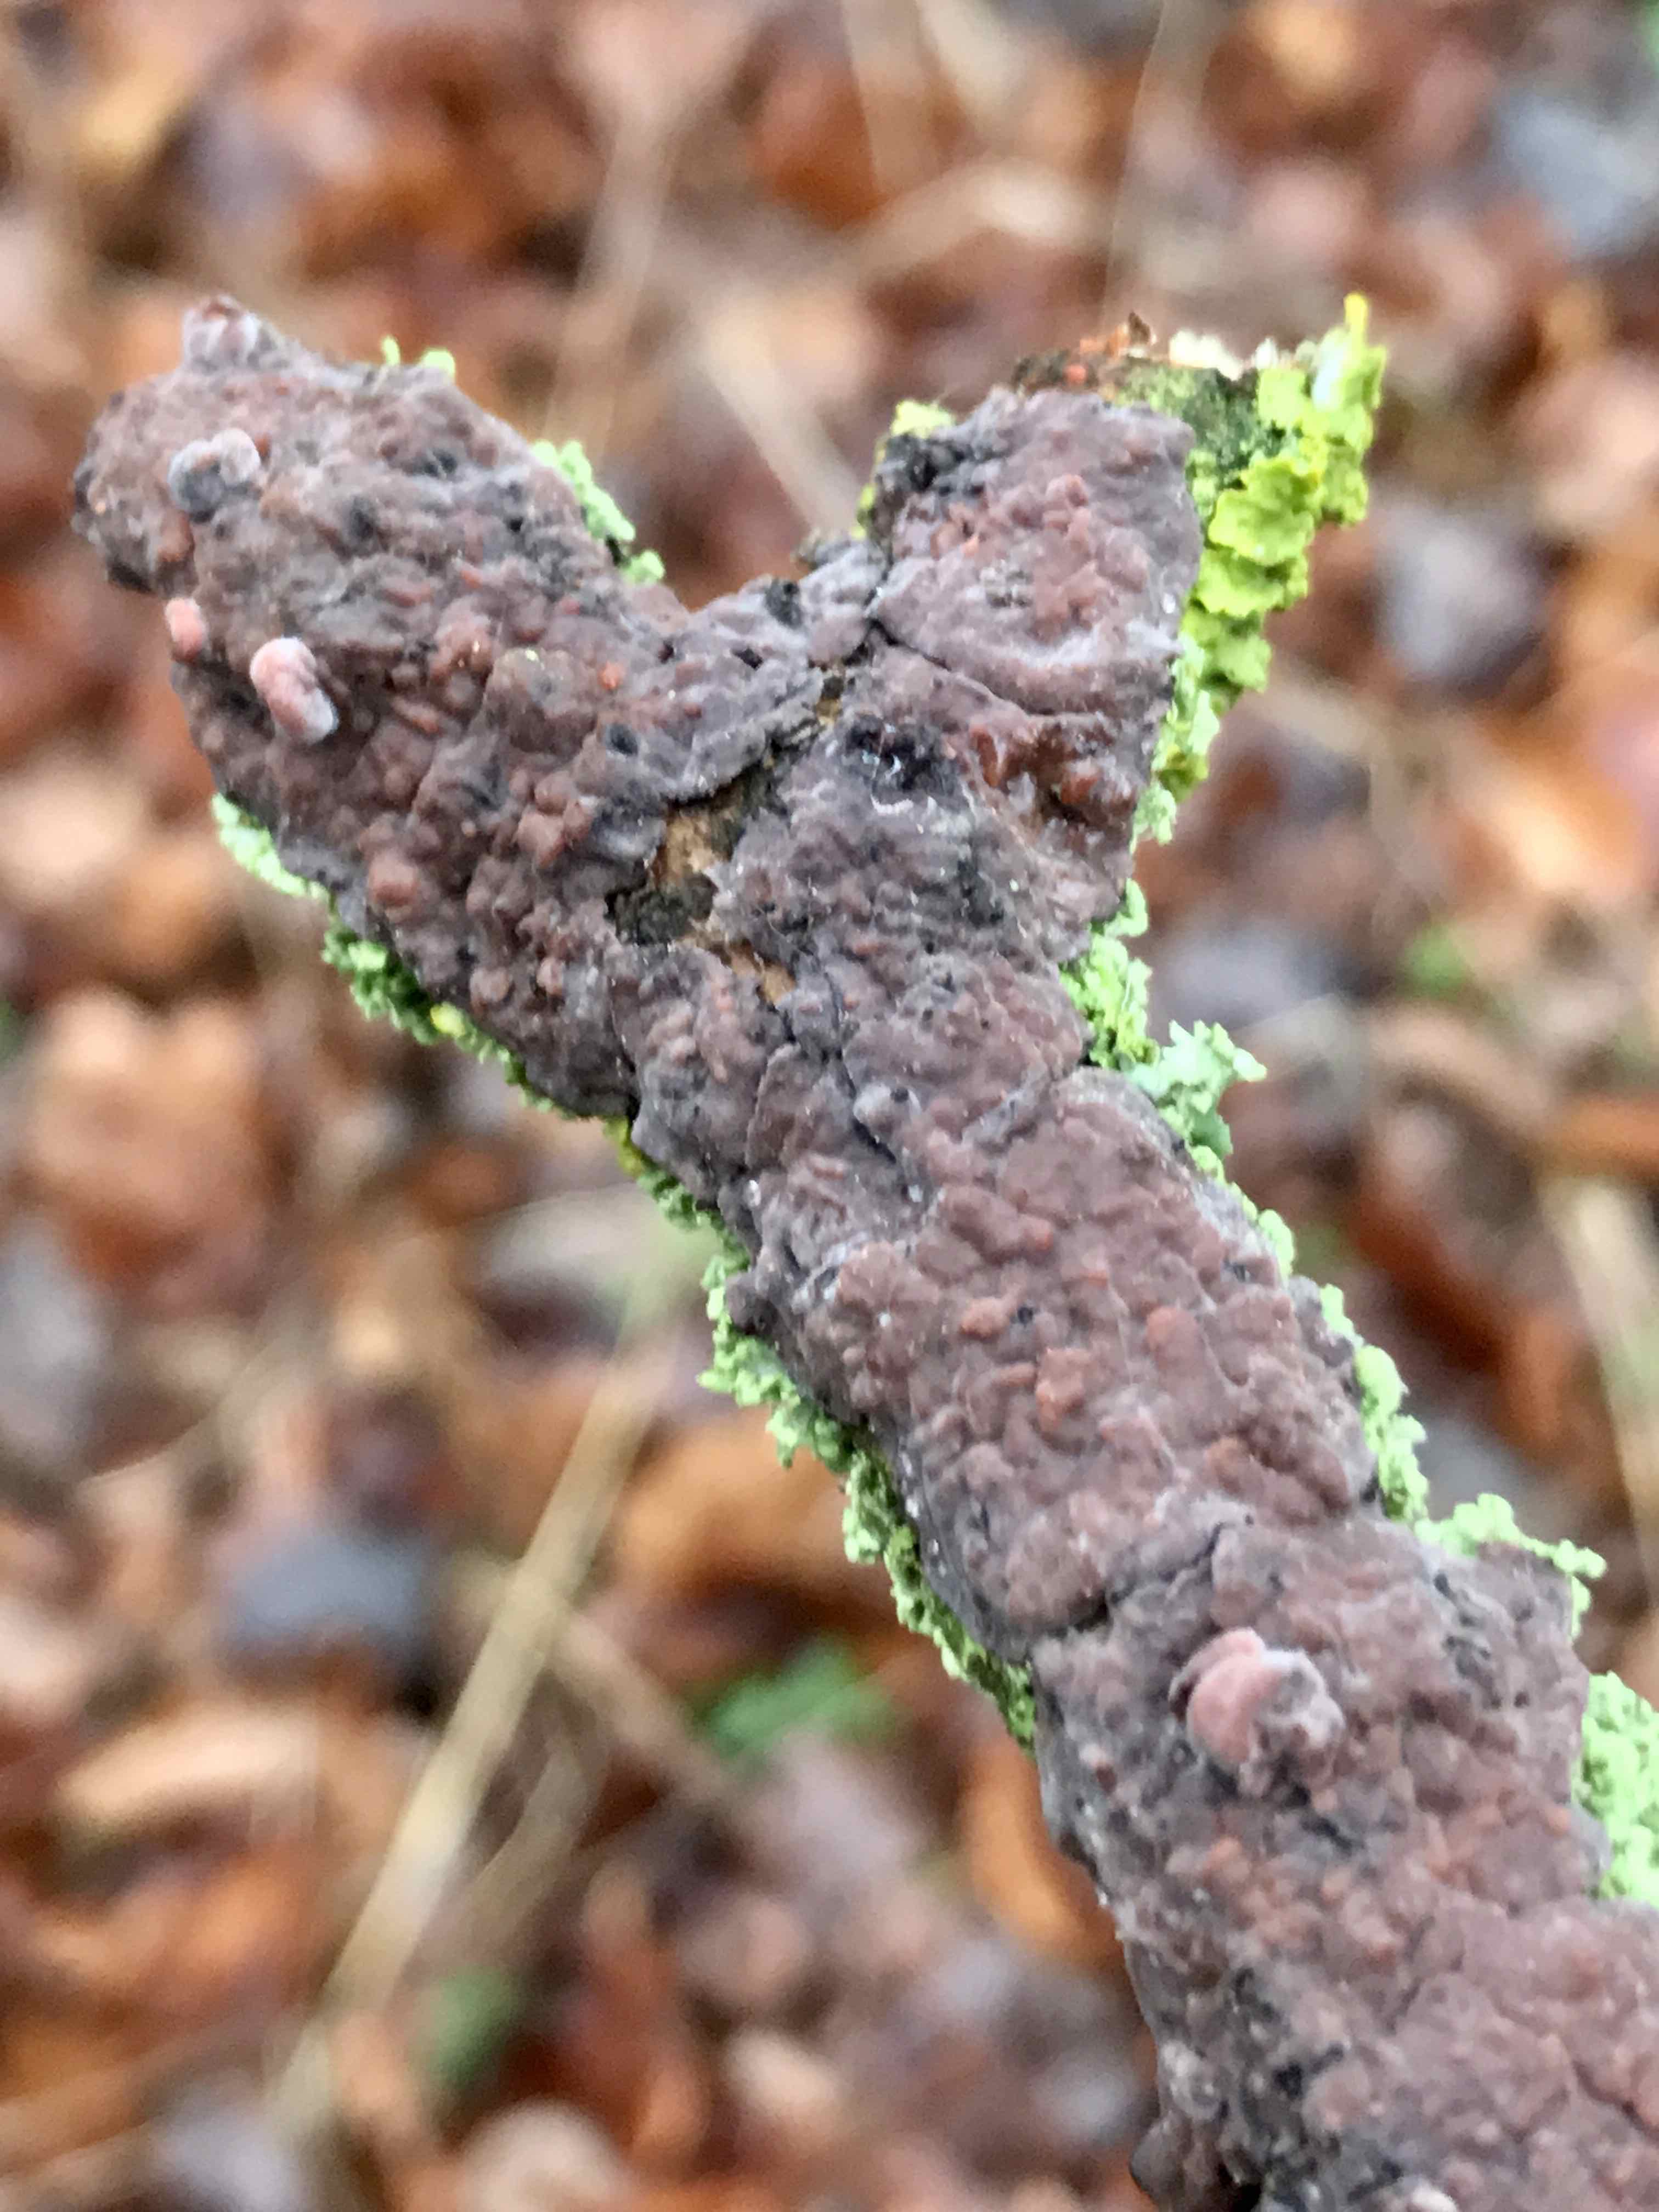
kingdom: Fungi
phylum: Basidiomycota
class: Agaricomycetes
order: Russulales
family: Peniophoraceae
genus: Peniophora
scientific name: Peniophora quercina
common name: ege-voksskind
